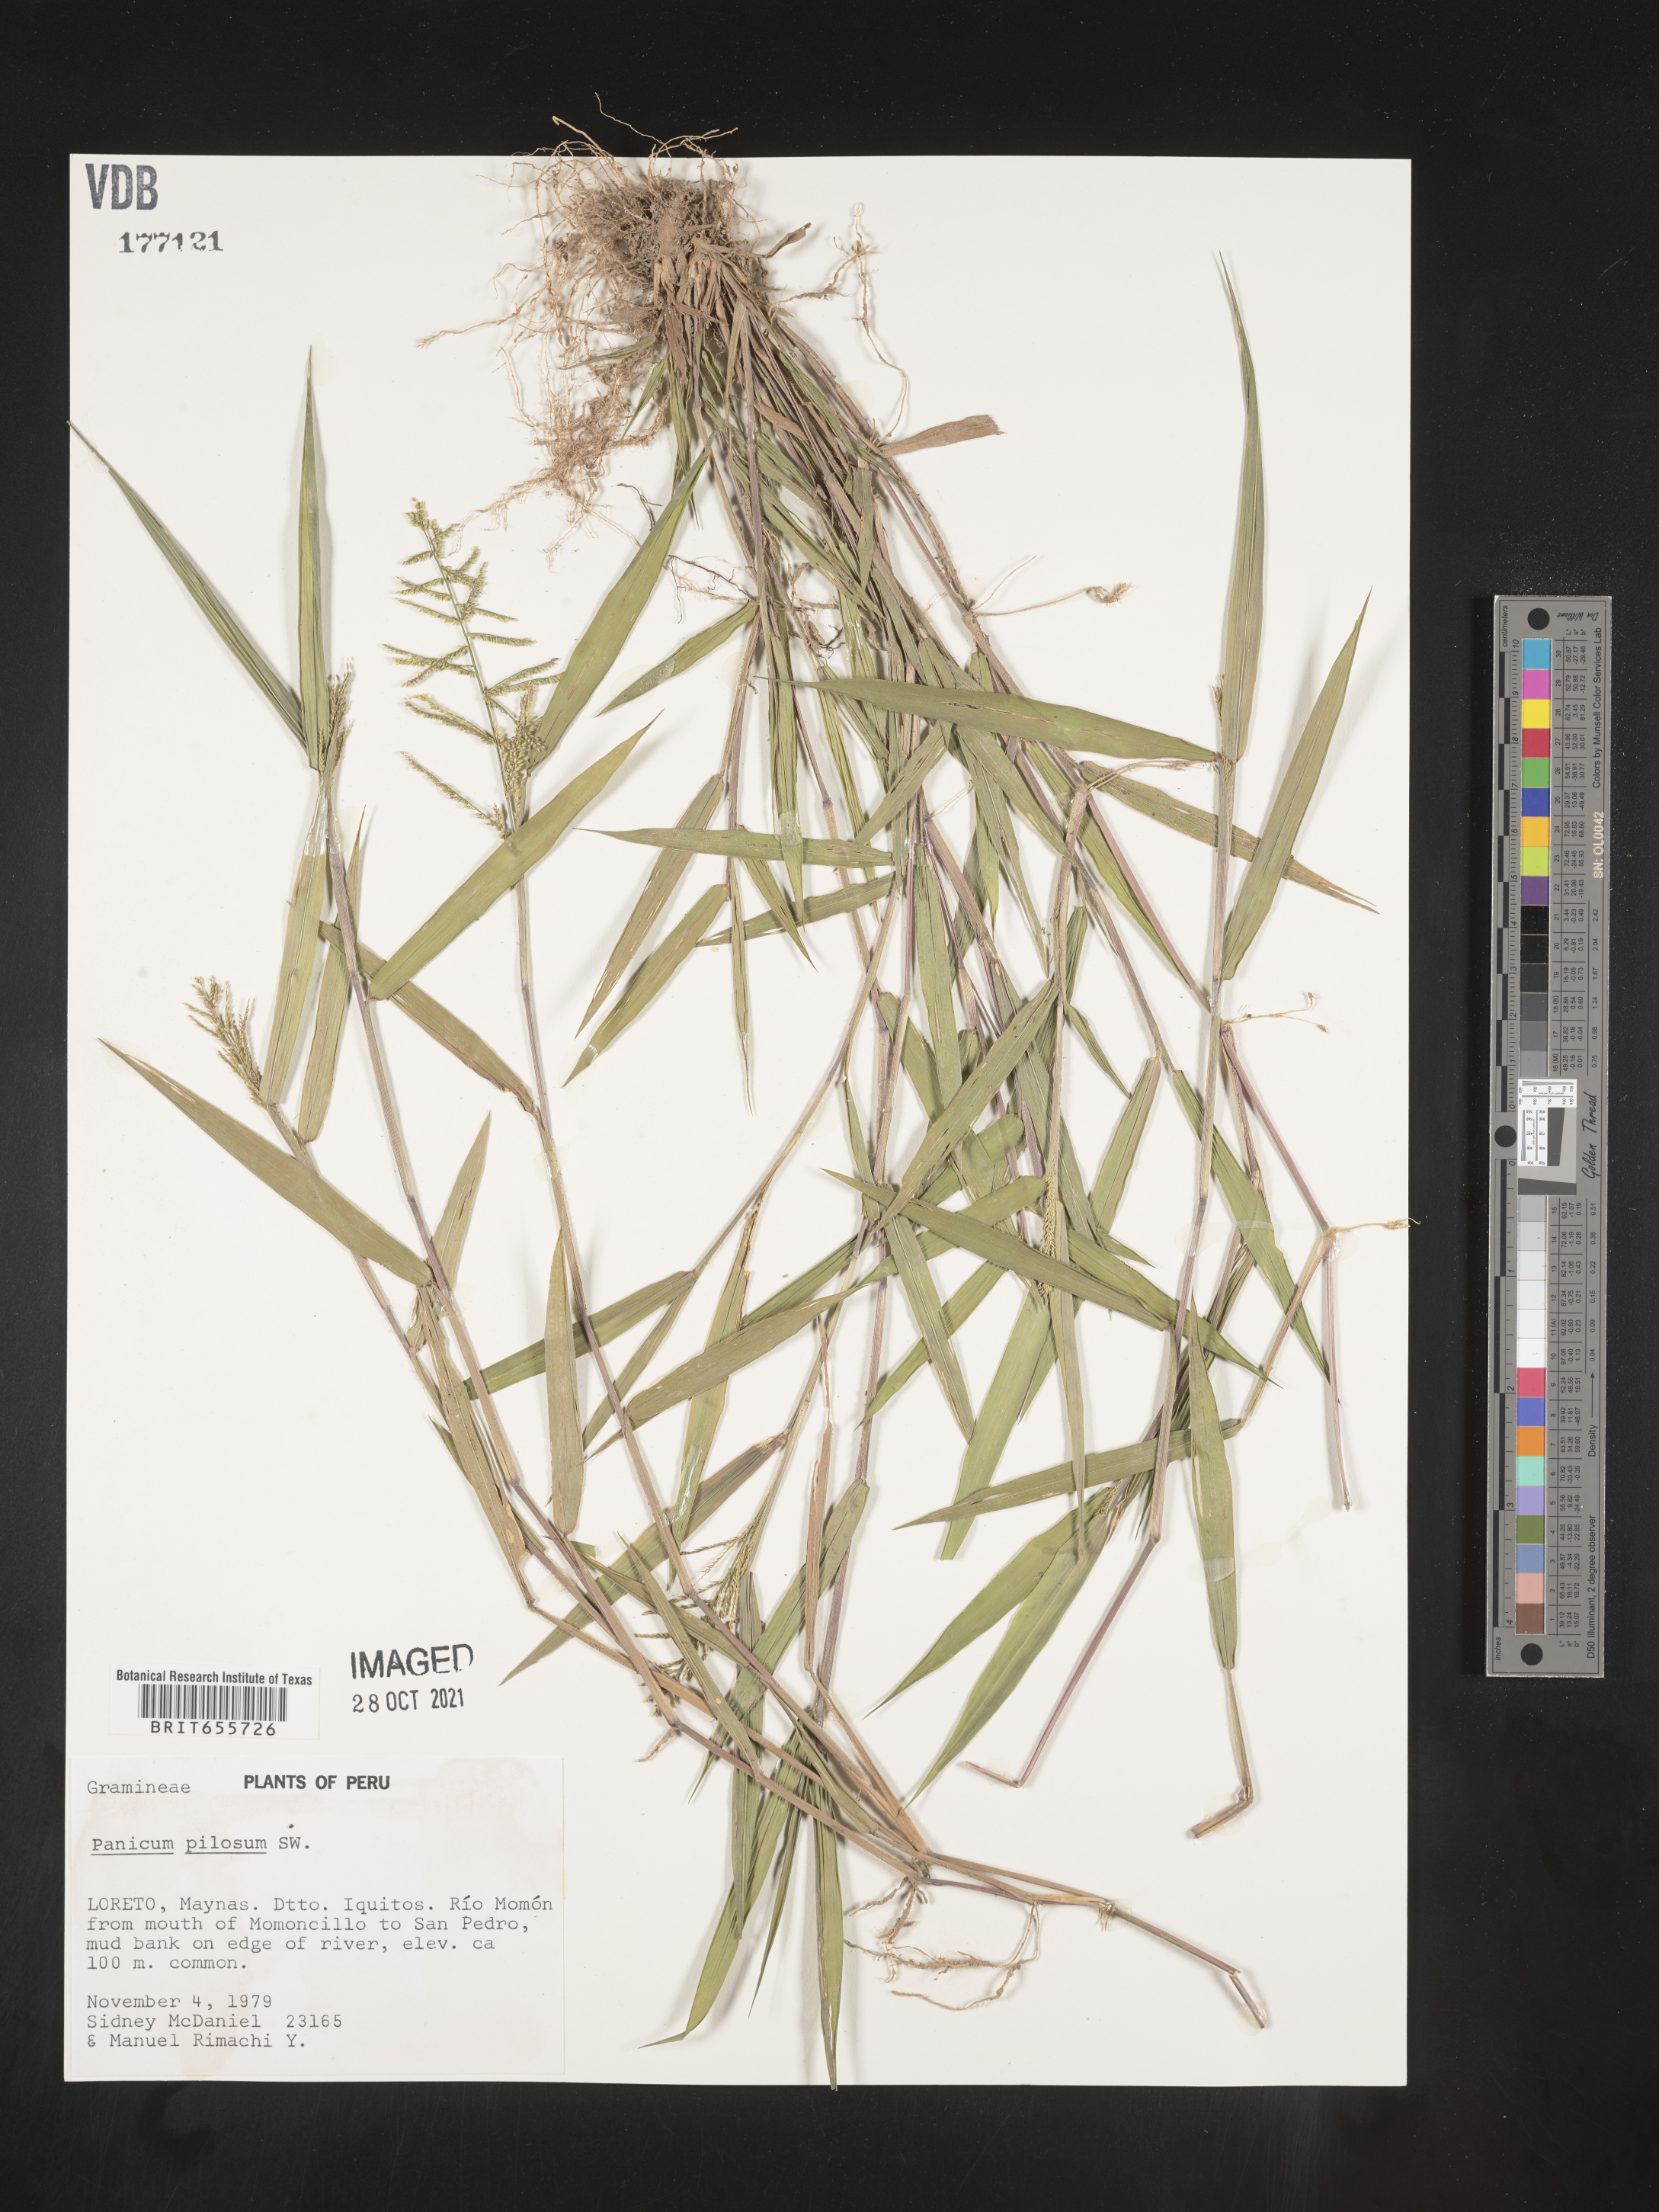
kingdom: Plantae
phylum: Tracheophyta
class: Liliopsida
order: Poales
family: Poaceae
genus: Panicum
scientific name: Panicum
